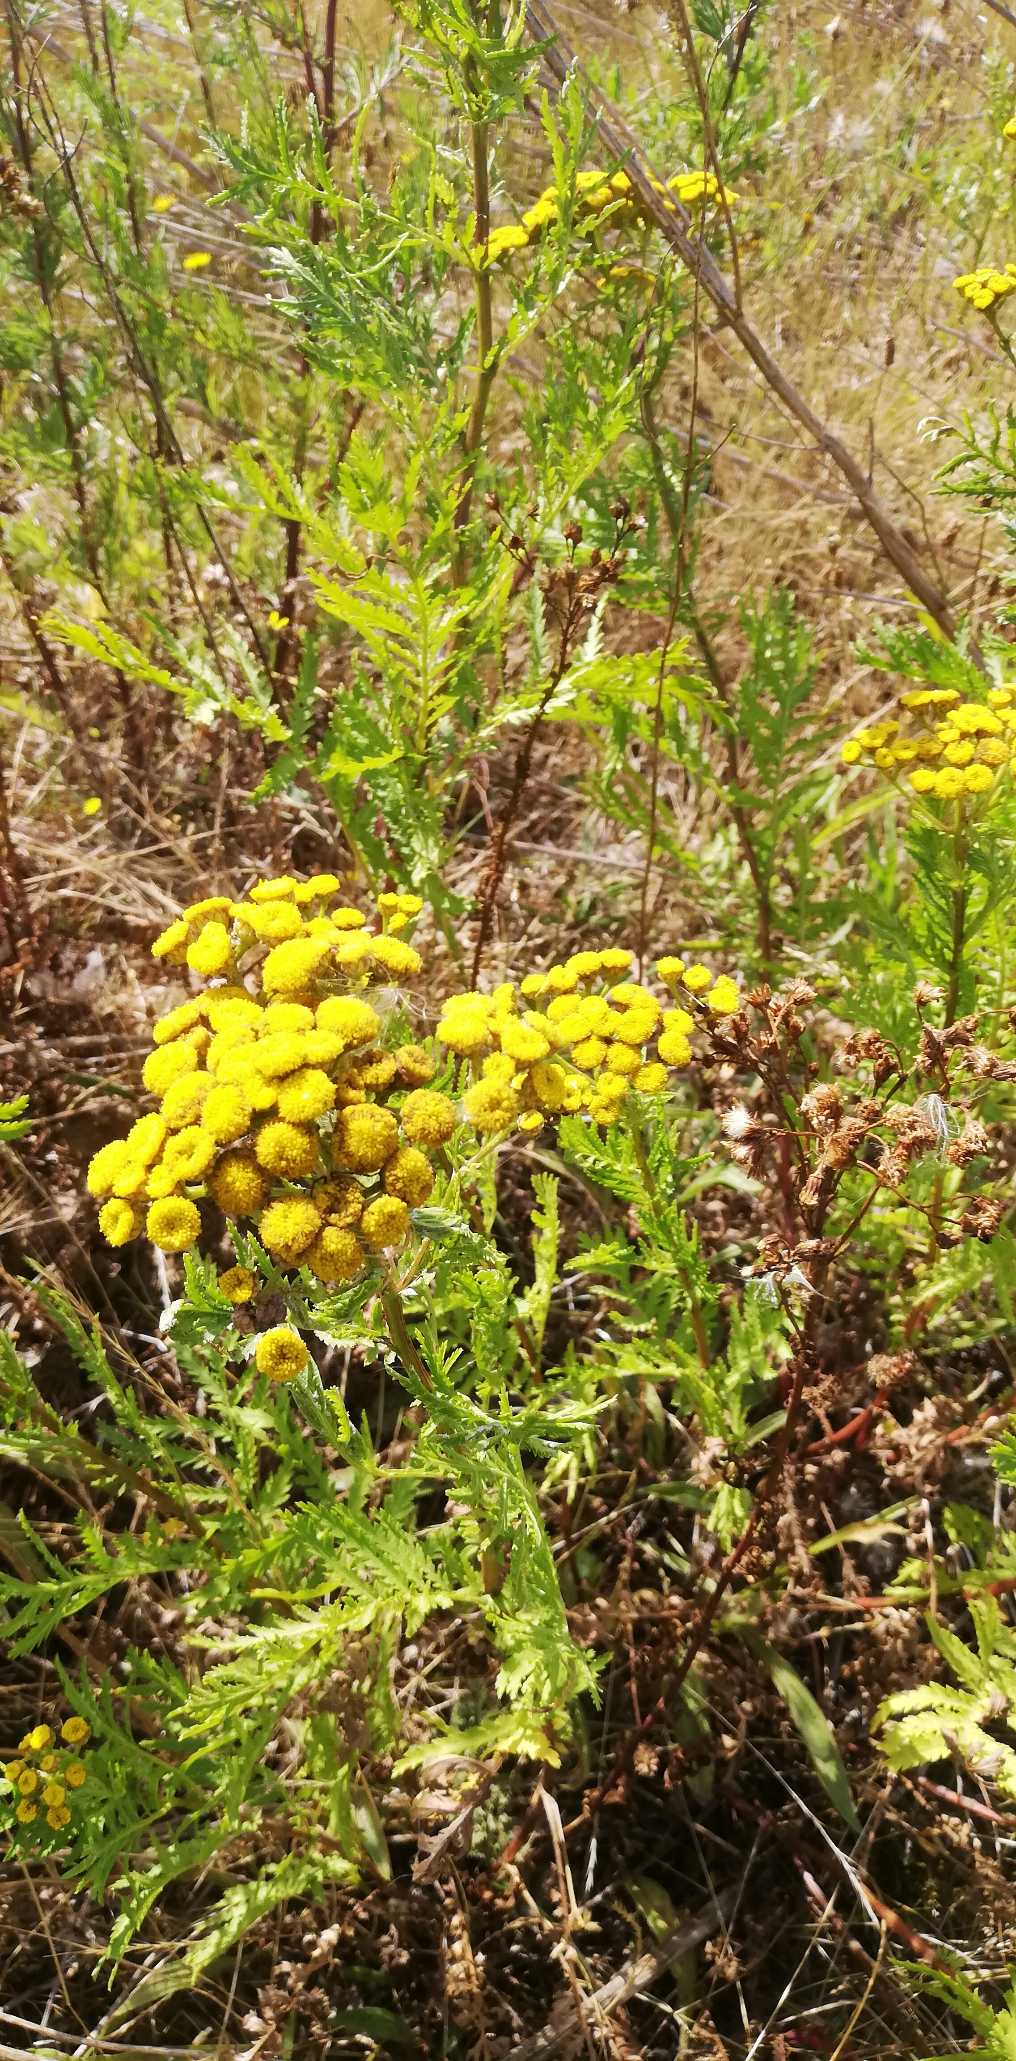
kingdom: Plantae
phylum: Tracheophyta
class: Magnoliopsida
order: Asterales
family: Asteraceae
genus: Tanacetum
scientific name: Tanacetum vulgare
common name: Rejnfan
